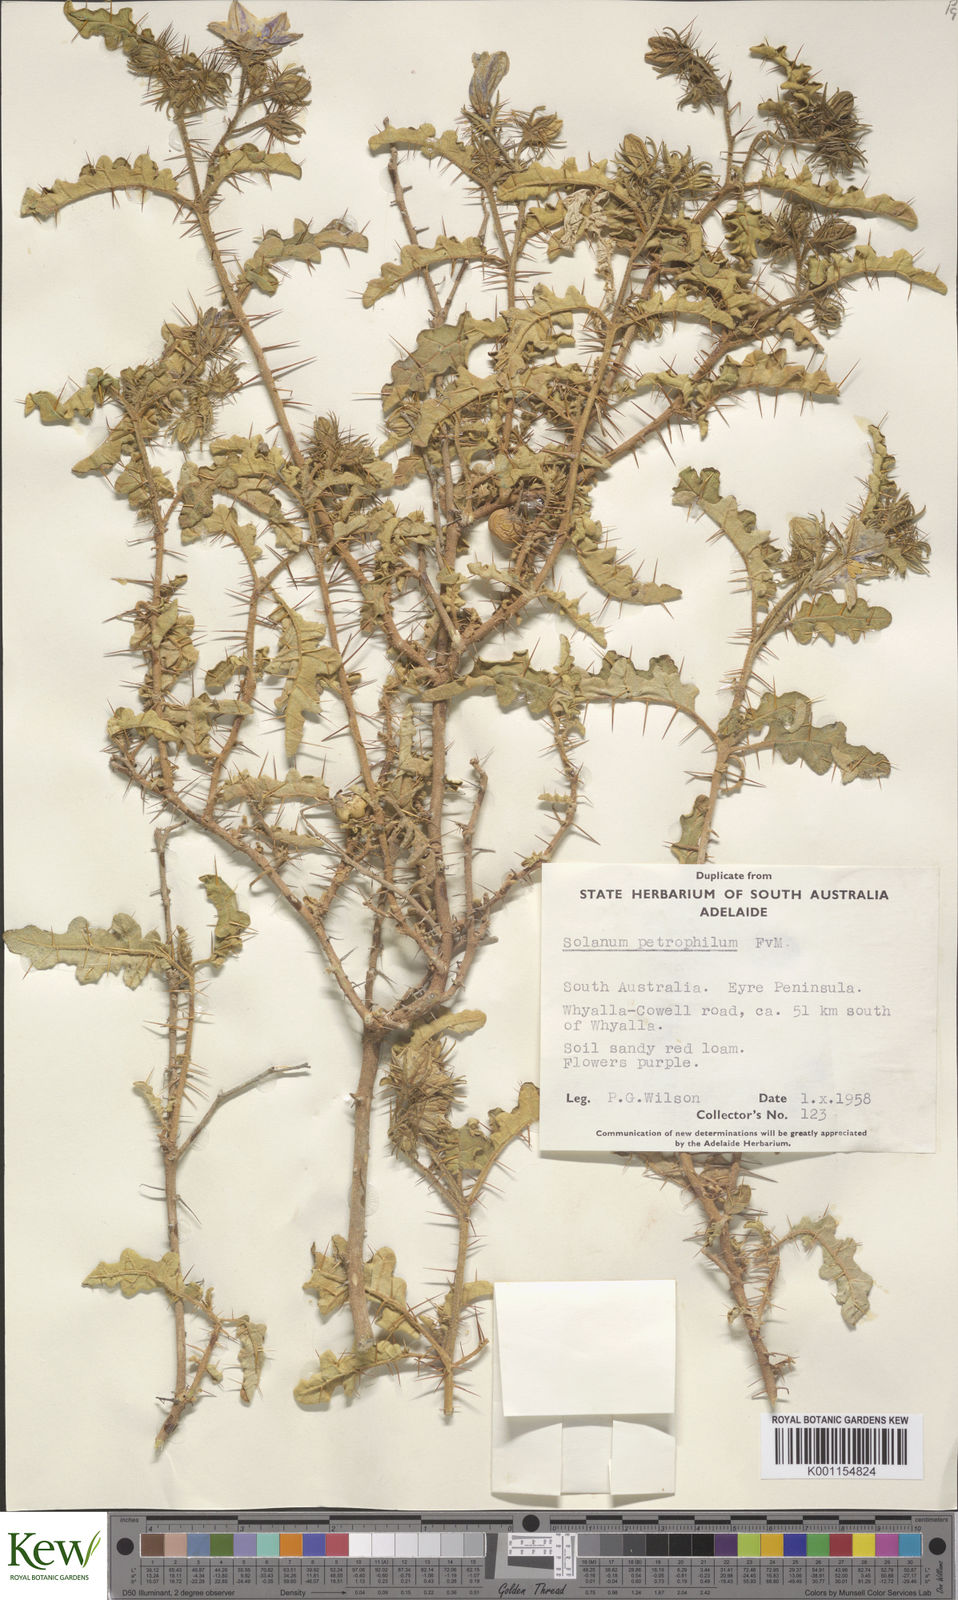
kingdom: Plantae
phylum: Tracheophyta
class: Magnoliopsida
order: Solanales
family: Solanaceae
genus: Solanum
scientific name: Solanum petrophilum
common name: Rock nightshade
